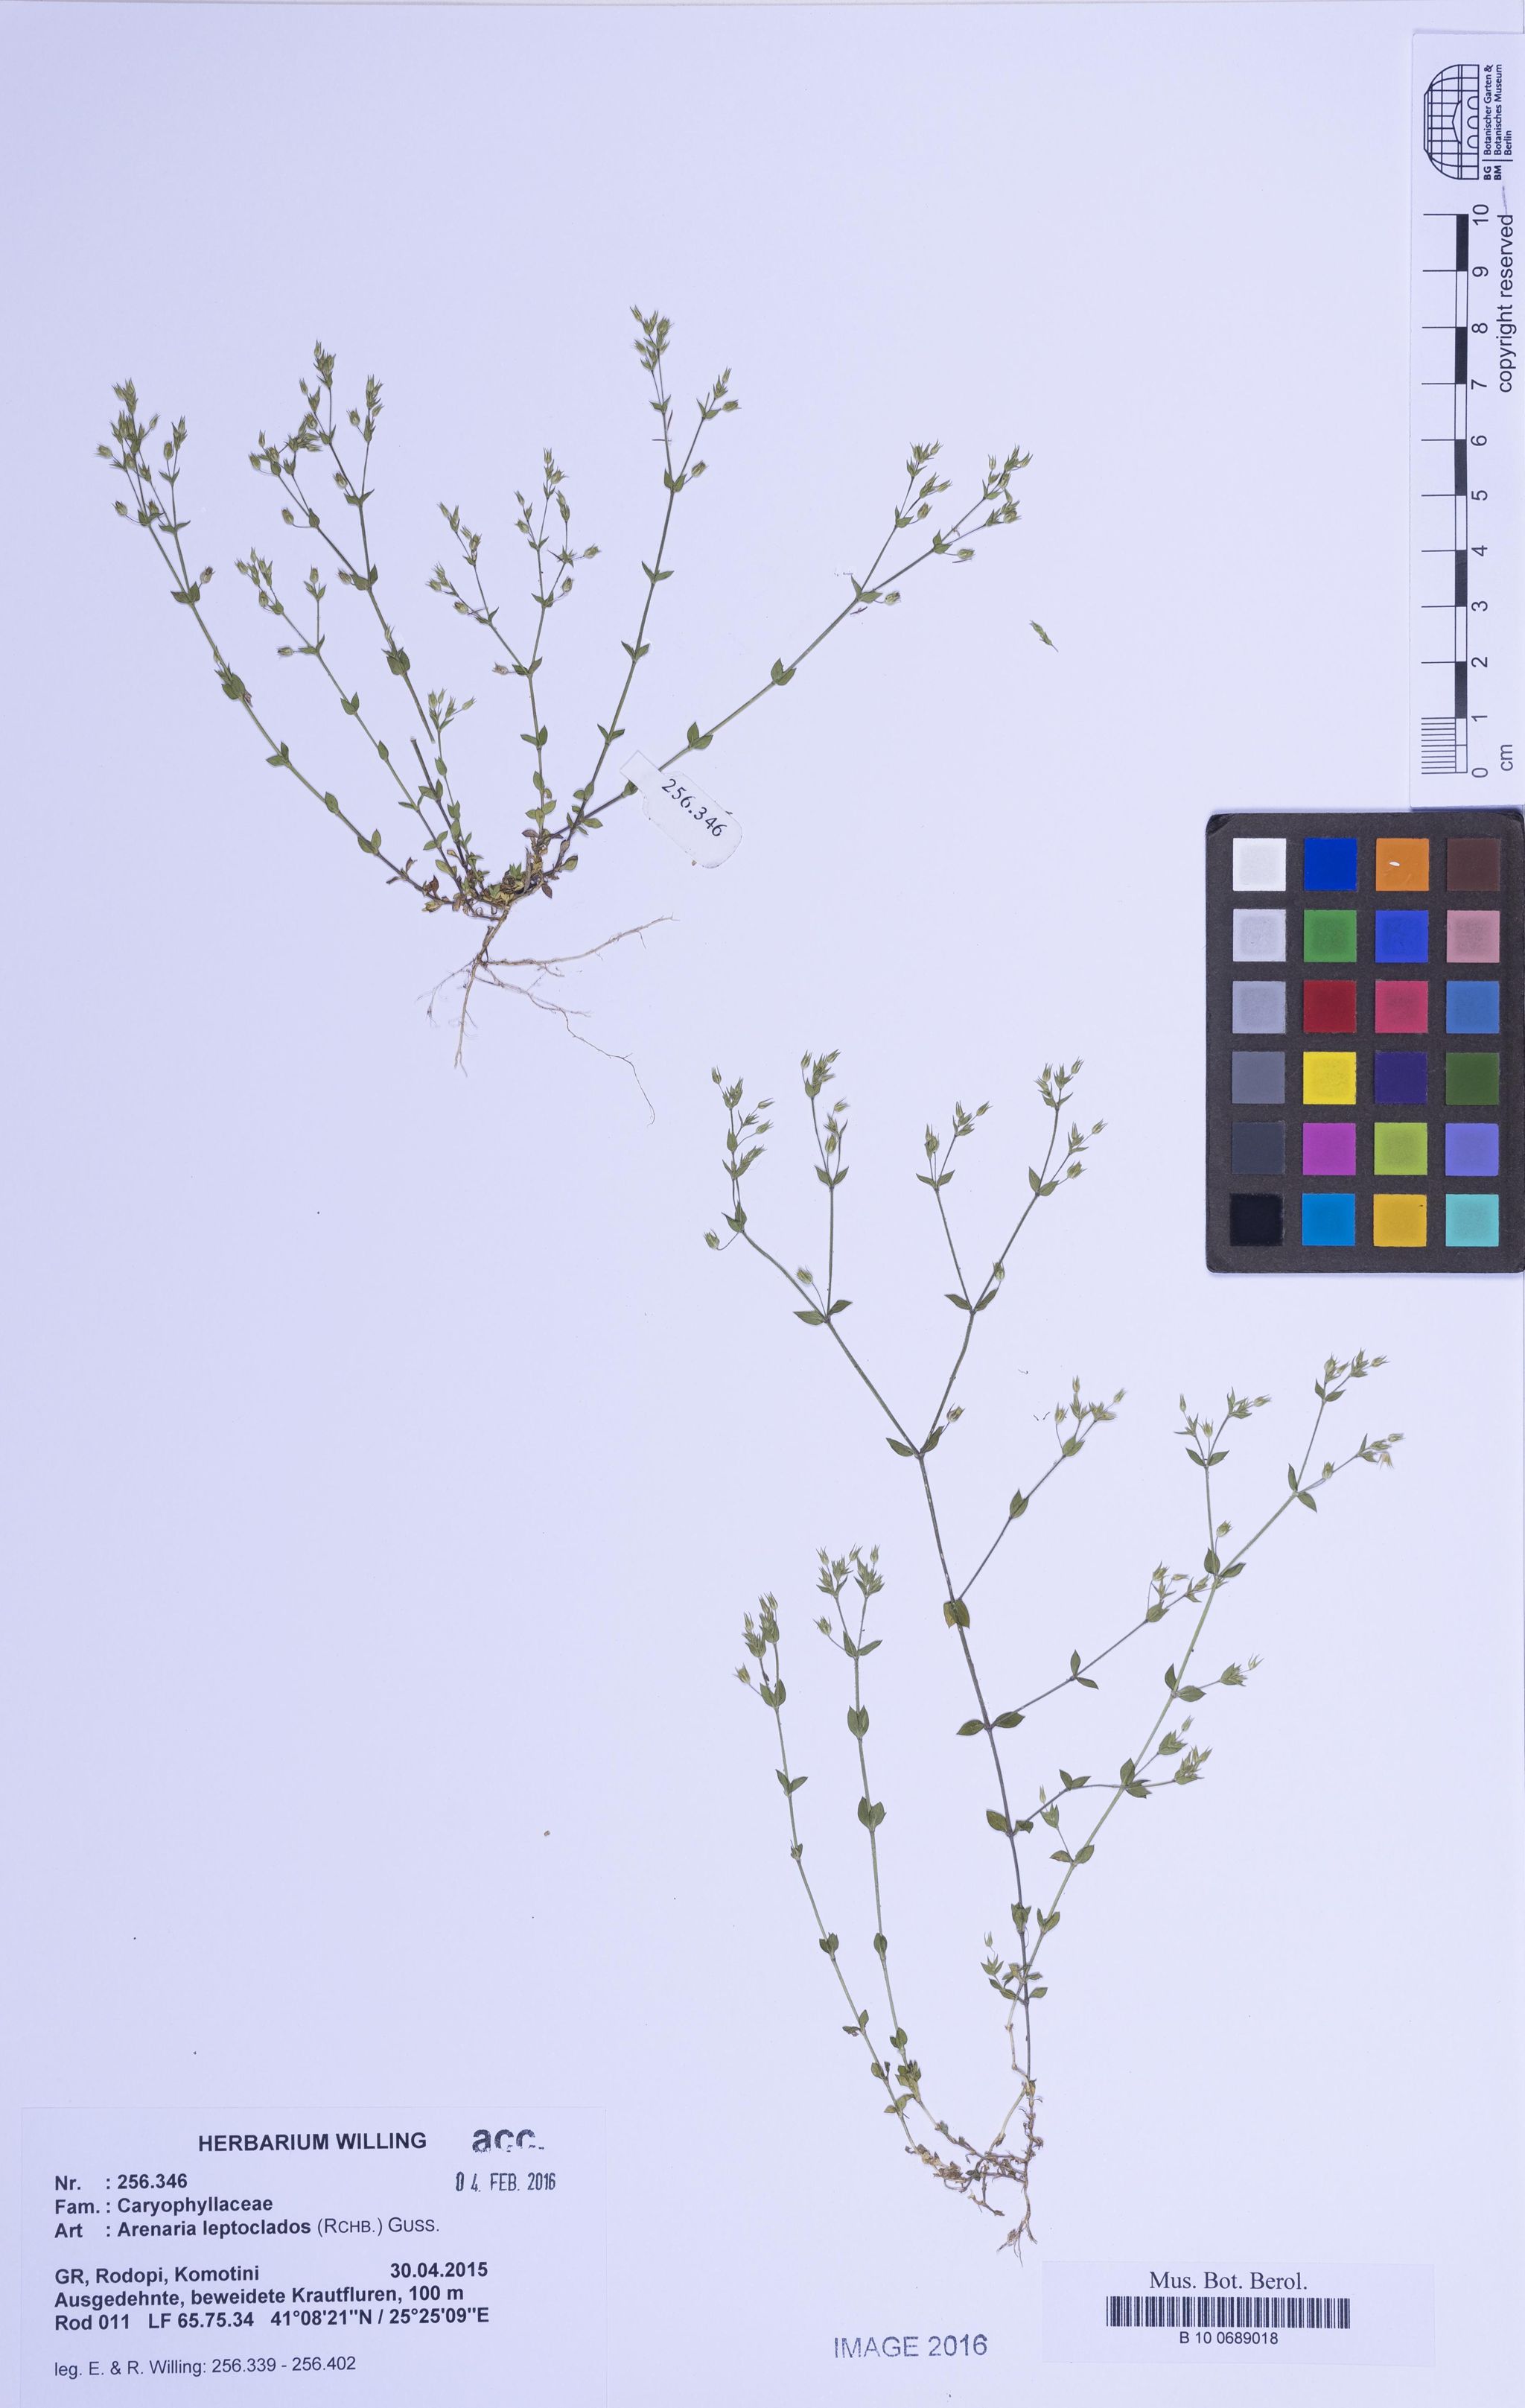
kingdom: Plantae
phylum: Tracheophyta
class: Magnoliopsida
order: Caryophyllales
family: Caryophyllaceae
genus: Arenaria
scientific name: Arenaria leptoclados
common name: Thyme-leaved sandwort
